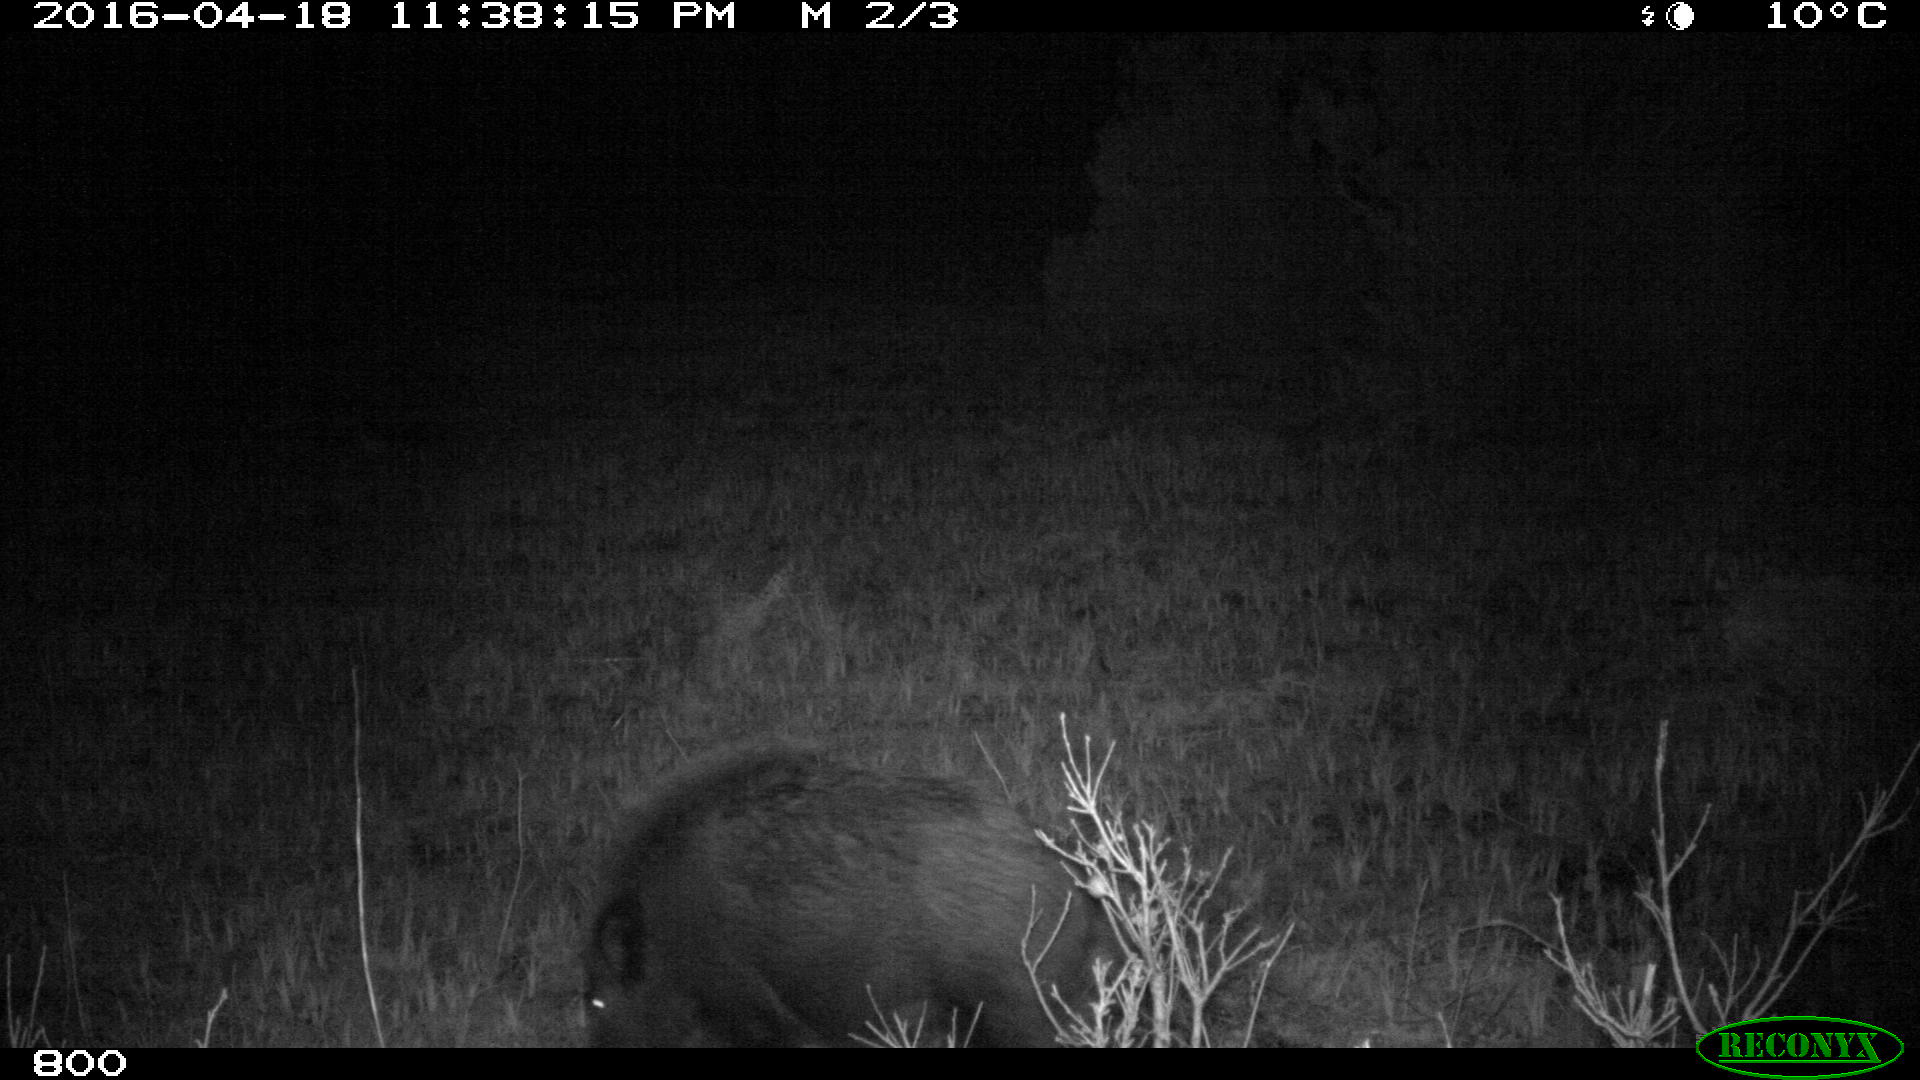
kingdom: Animalia
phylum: Chordata
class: Mammalia
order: Artiodactyla
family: Suidae
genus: Sus
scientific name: Sus scrofa
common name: Wild boar
